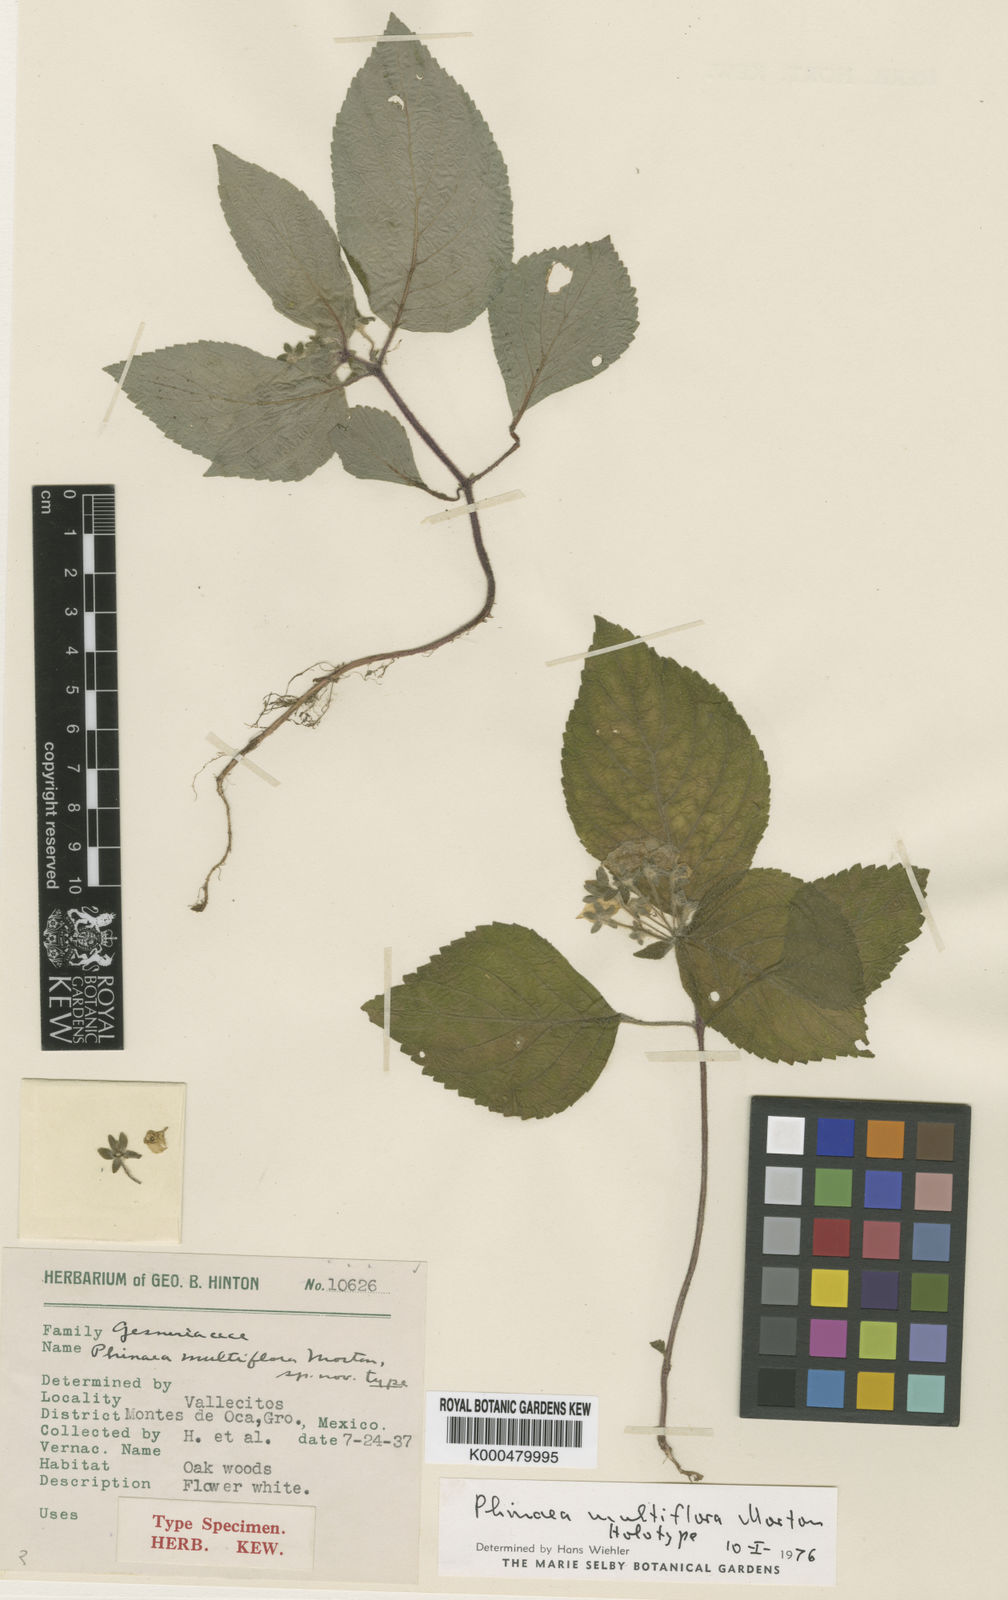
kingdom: Plantae
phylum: Tracheophyta
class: Magnoliopsida
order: Lamiales
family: Gesneriaceae
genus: Phinaea
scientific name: Phinaea multiflora
